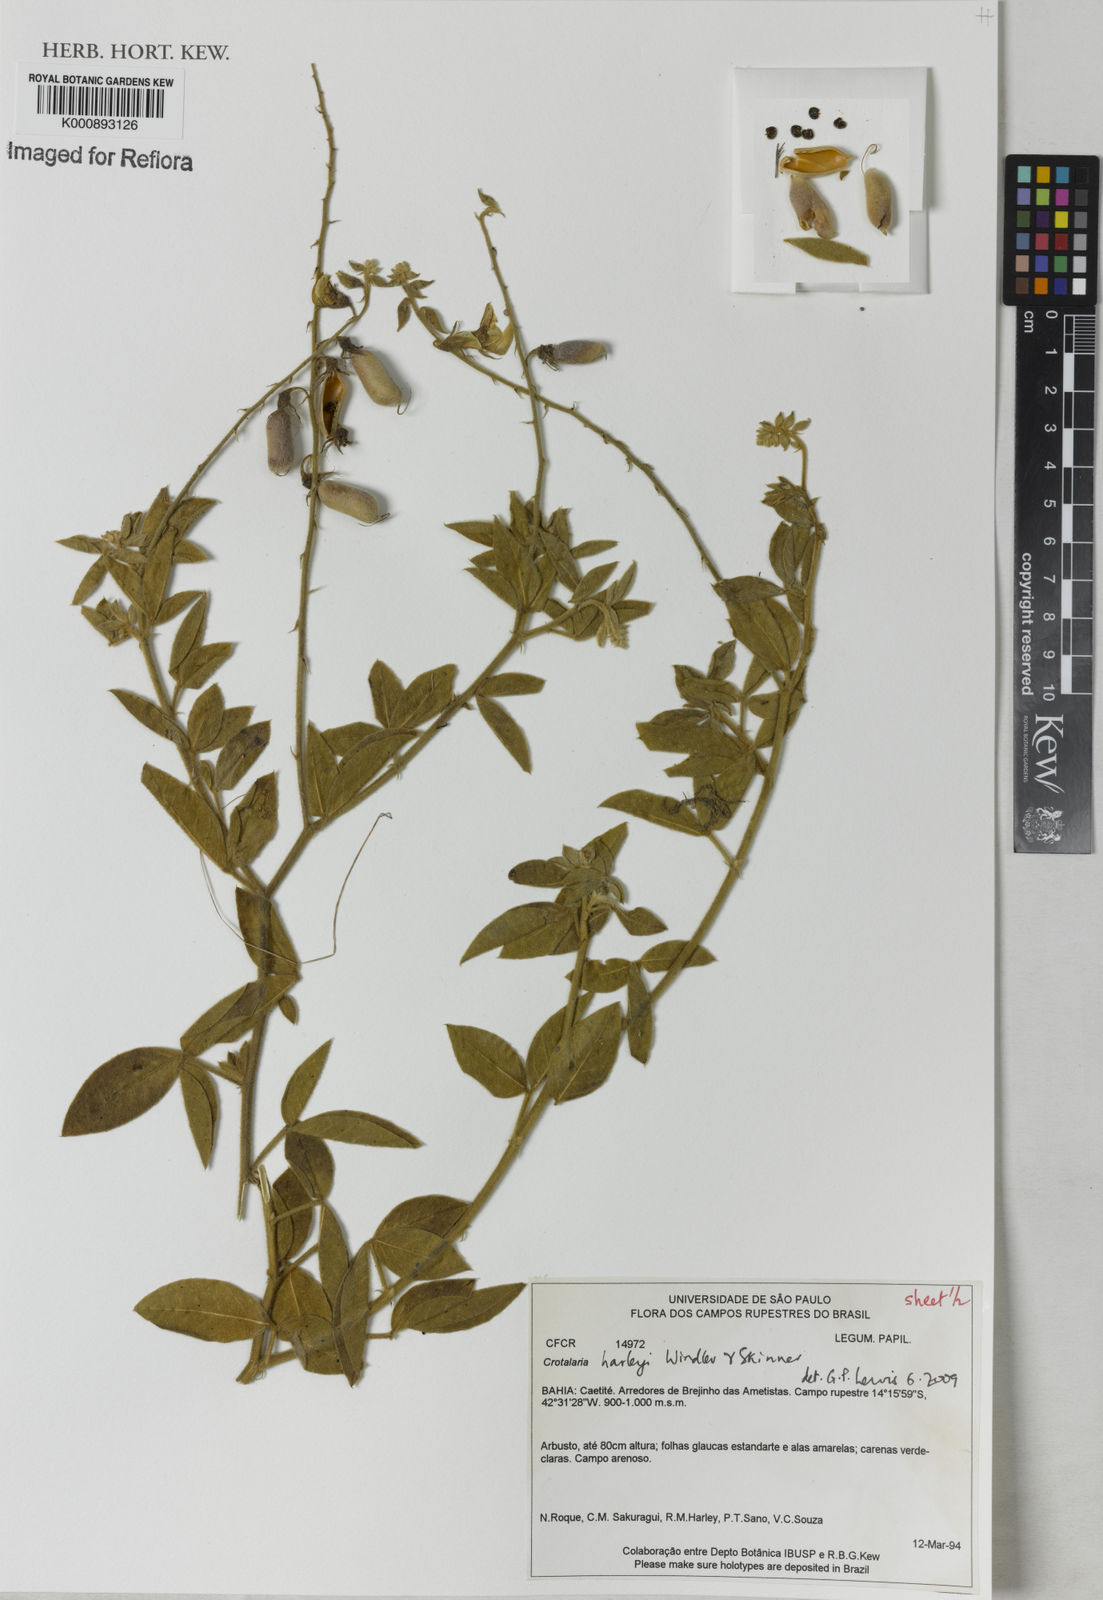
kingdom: Plantae
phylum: Tracheophyta
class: Magnoliopsida
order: Fabales
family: Fabaceae
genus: Crotalaria
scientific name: Crotalaria harleyi
